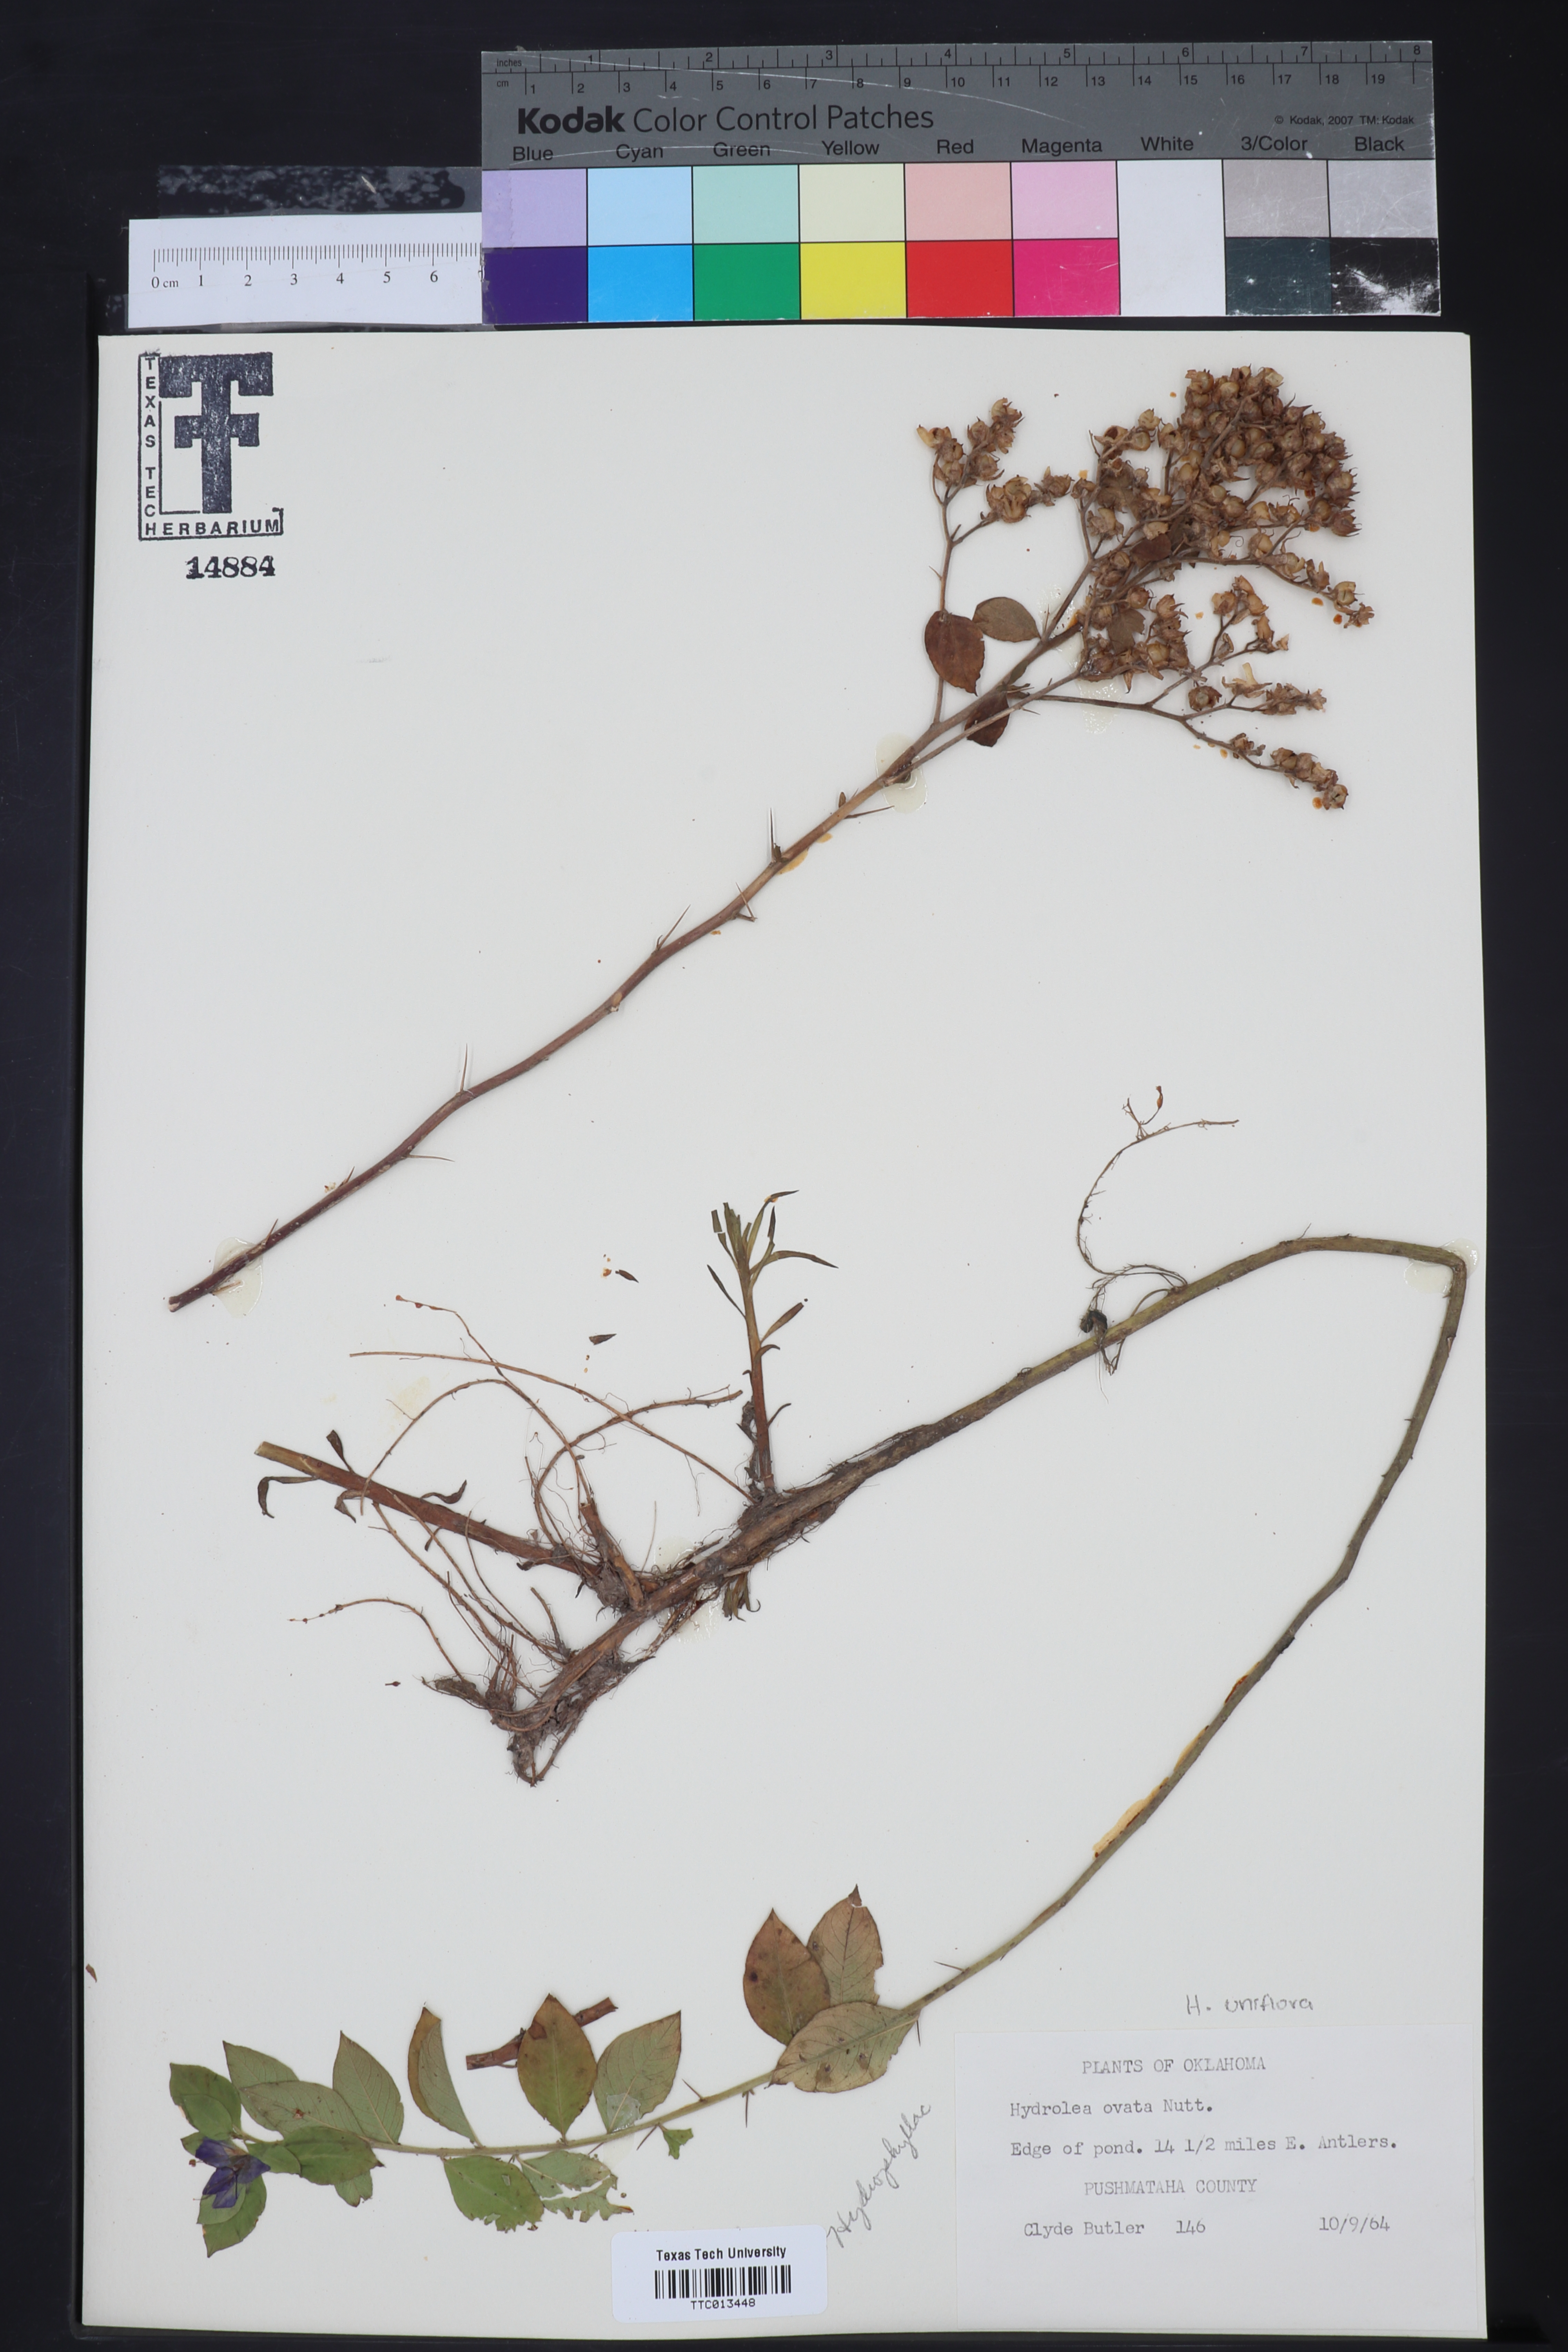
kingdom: Plantae
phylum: Tracheophyta
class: Magnoliopsida
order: Solanales
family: Hydroleaceae
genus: Hydrolea
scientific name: Hydrolea ovata
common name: Ovate false fiddleleaf
